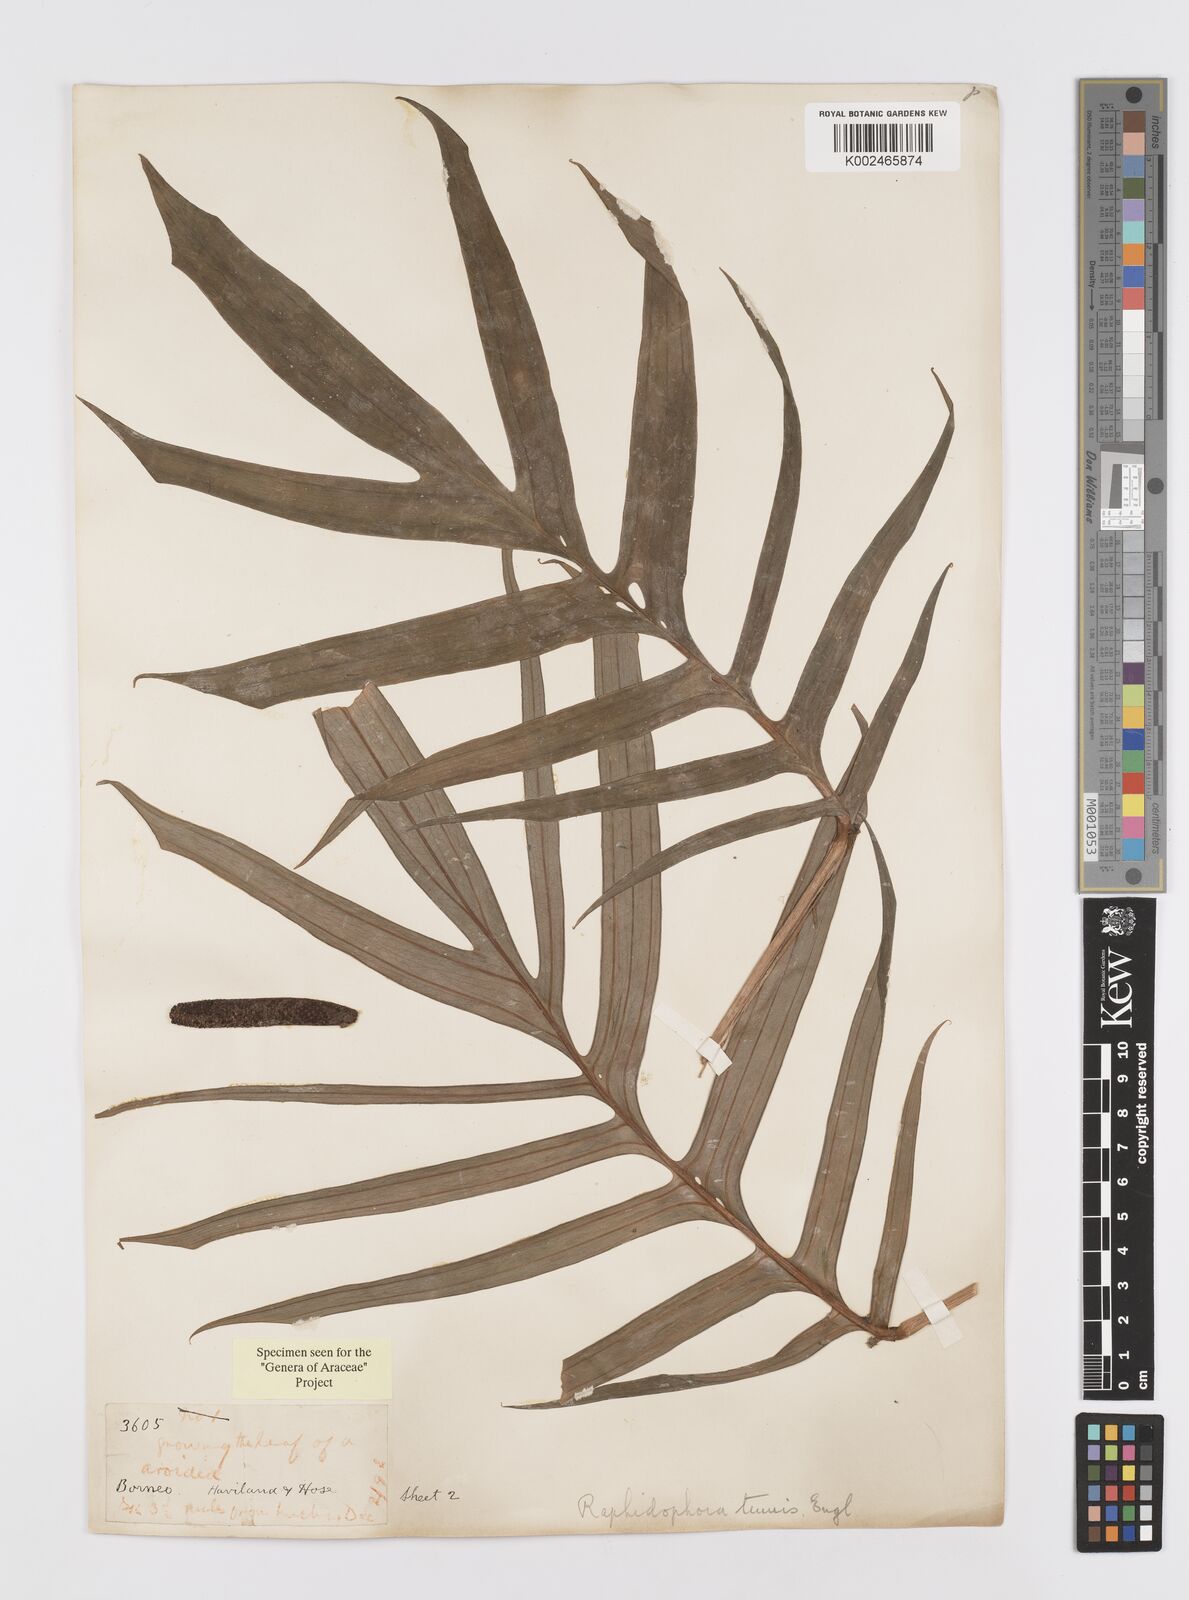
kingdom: Plantae
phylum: Tracheophyta
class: Liliopsida
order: Alismatales
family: Araceae
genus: Rhaphidophora
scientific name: Rhaphidophora korthalsii
